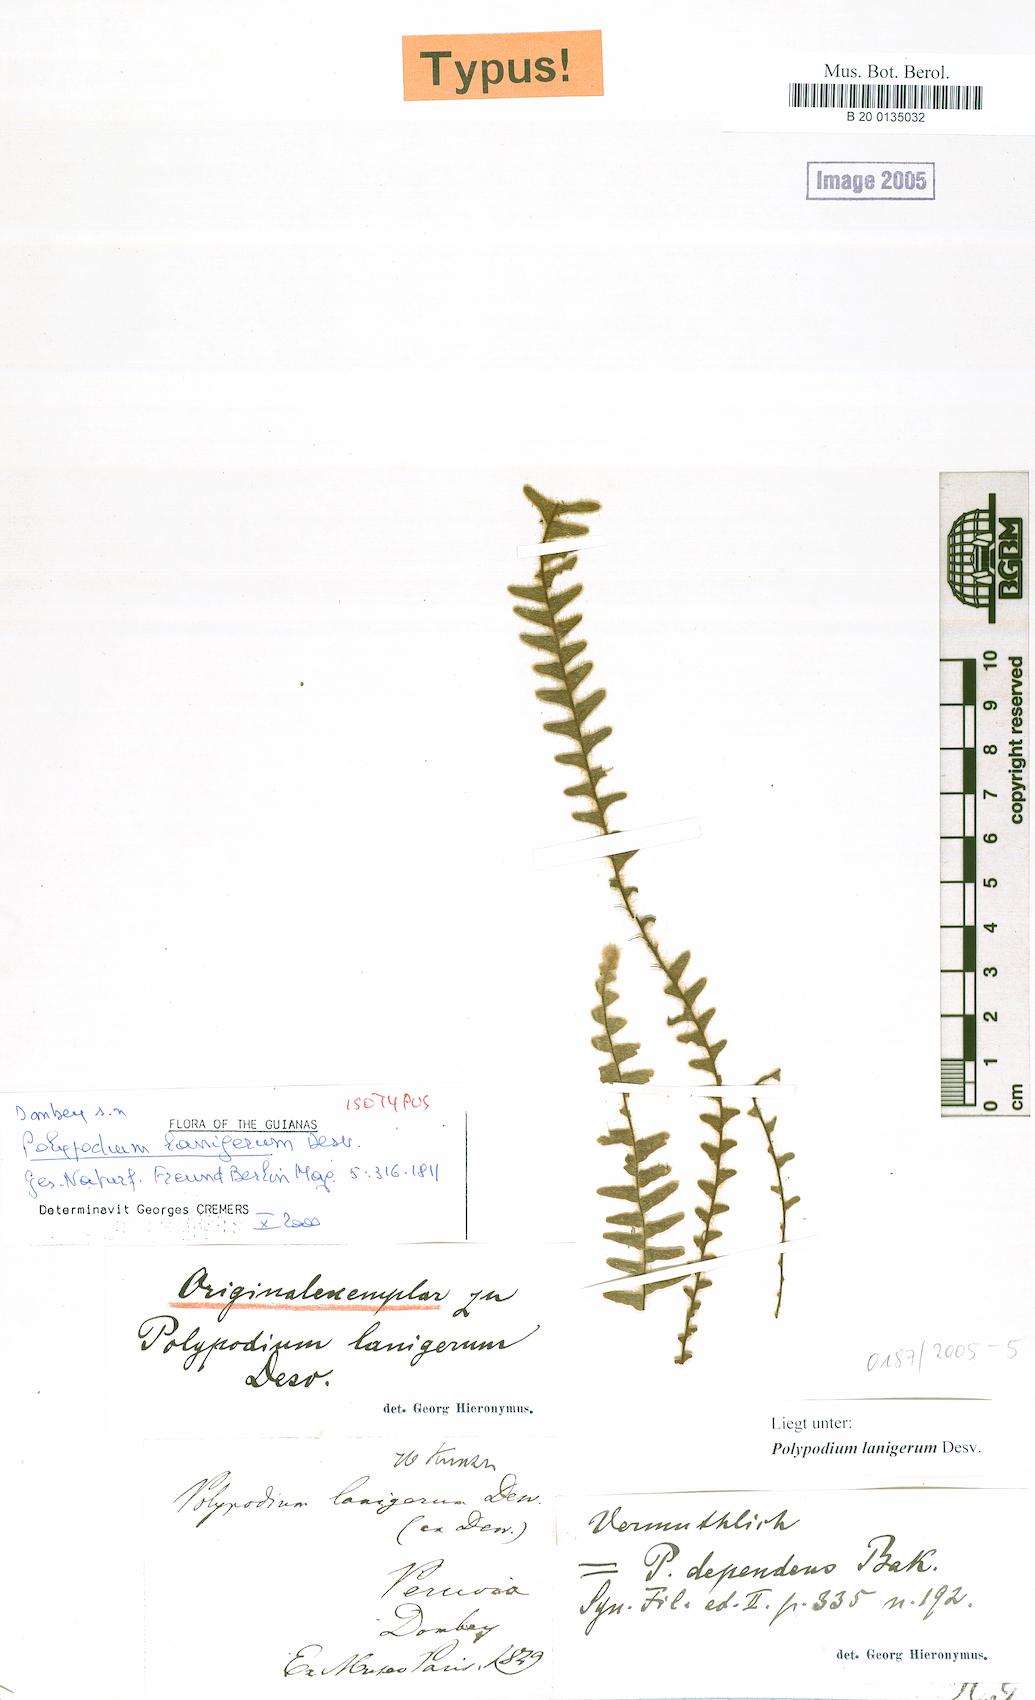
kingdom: Plantae
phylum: Tracheophyta
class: Polypodiopsida
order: Polypodiales
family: Polypodiaceae
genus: Alansmia
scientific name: Alansmia lanigera
